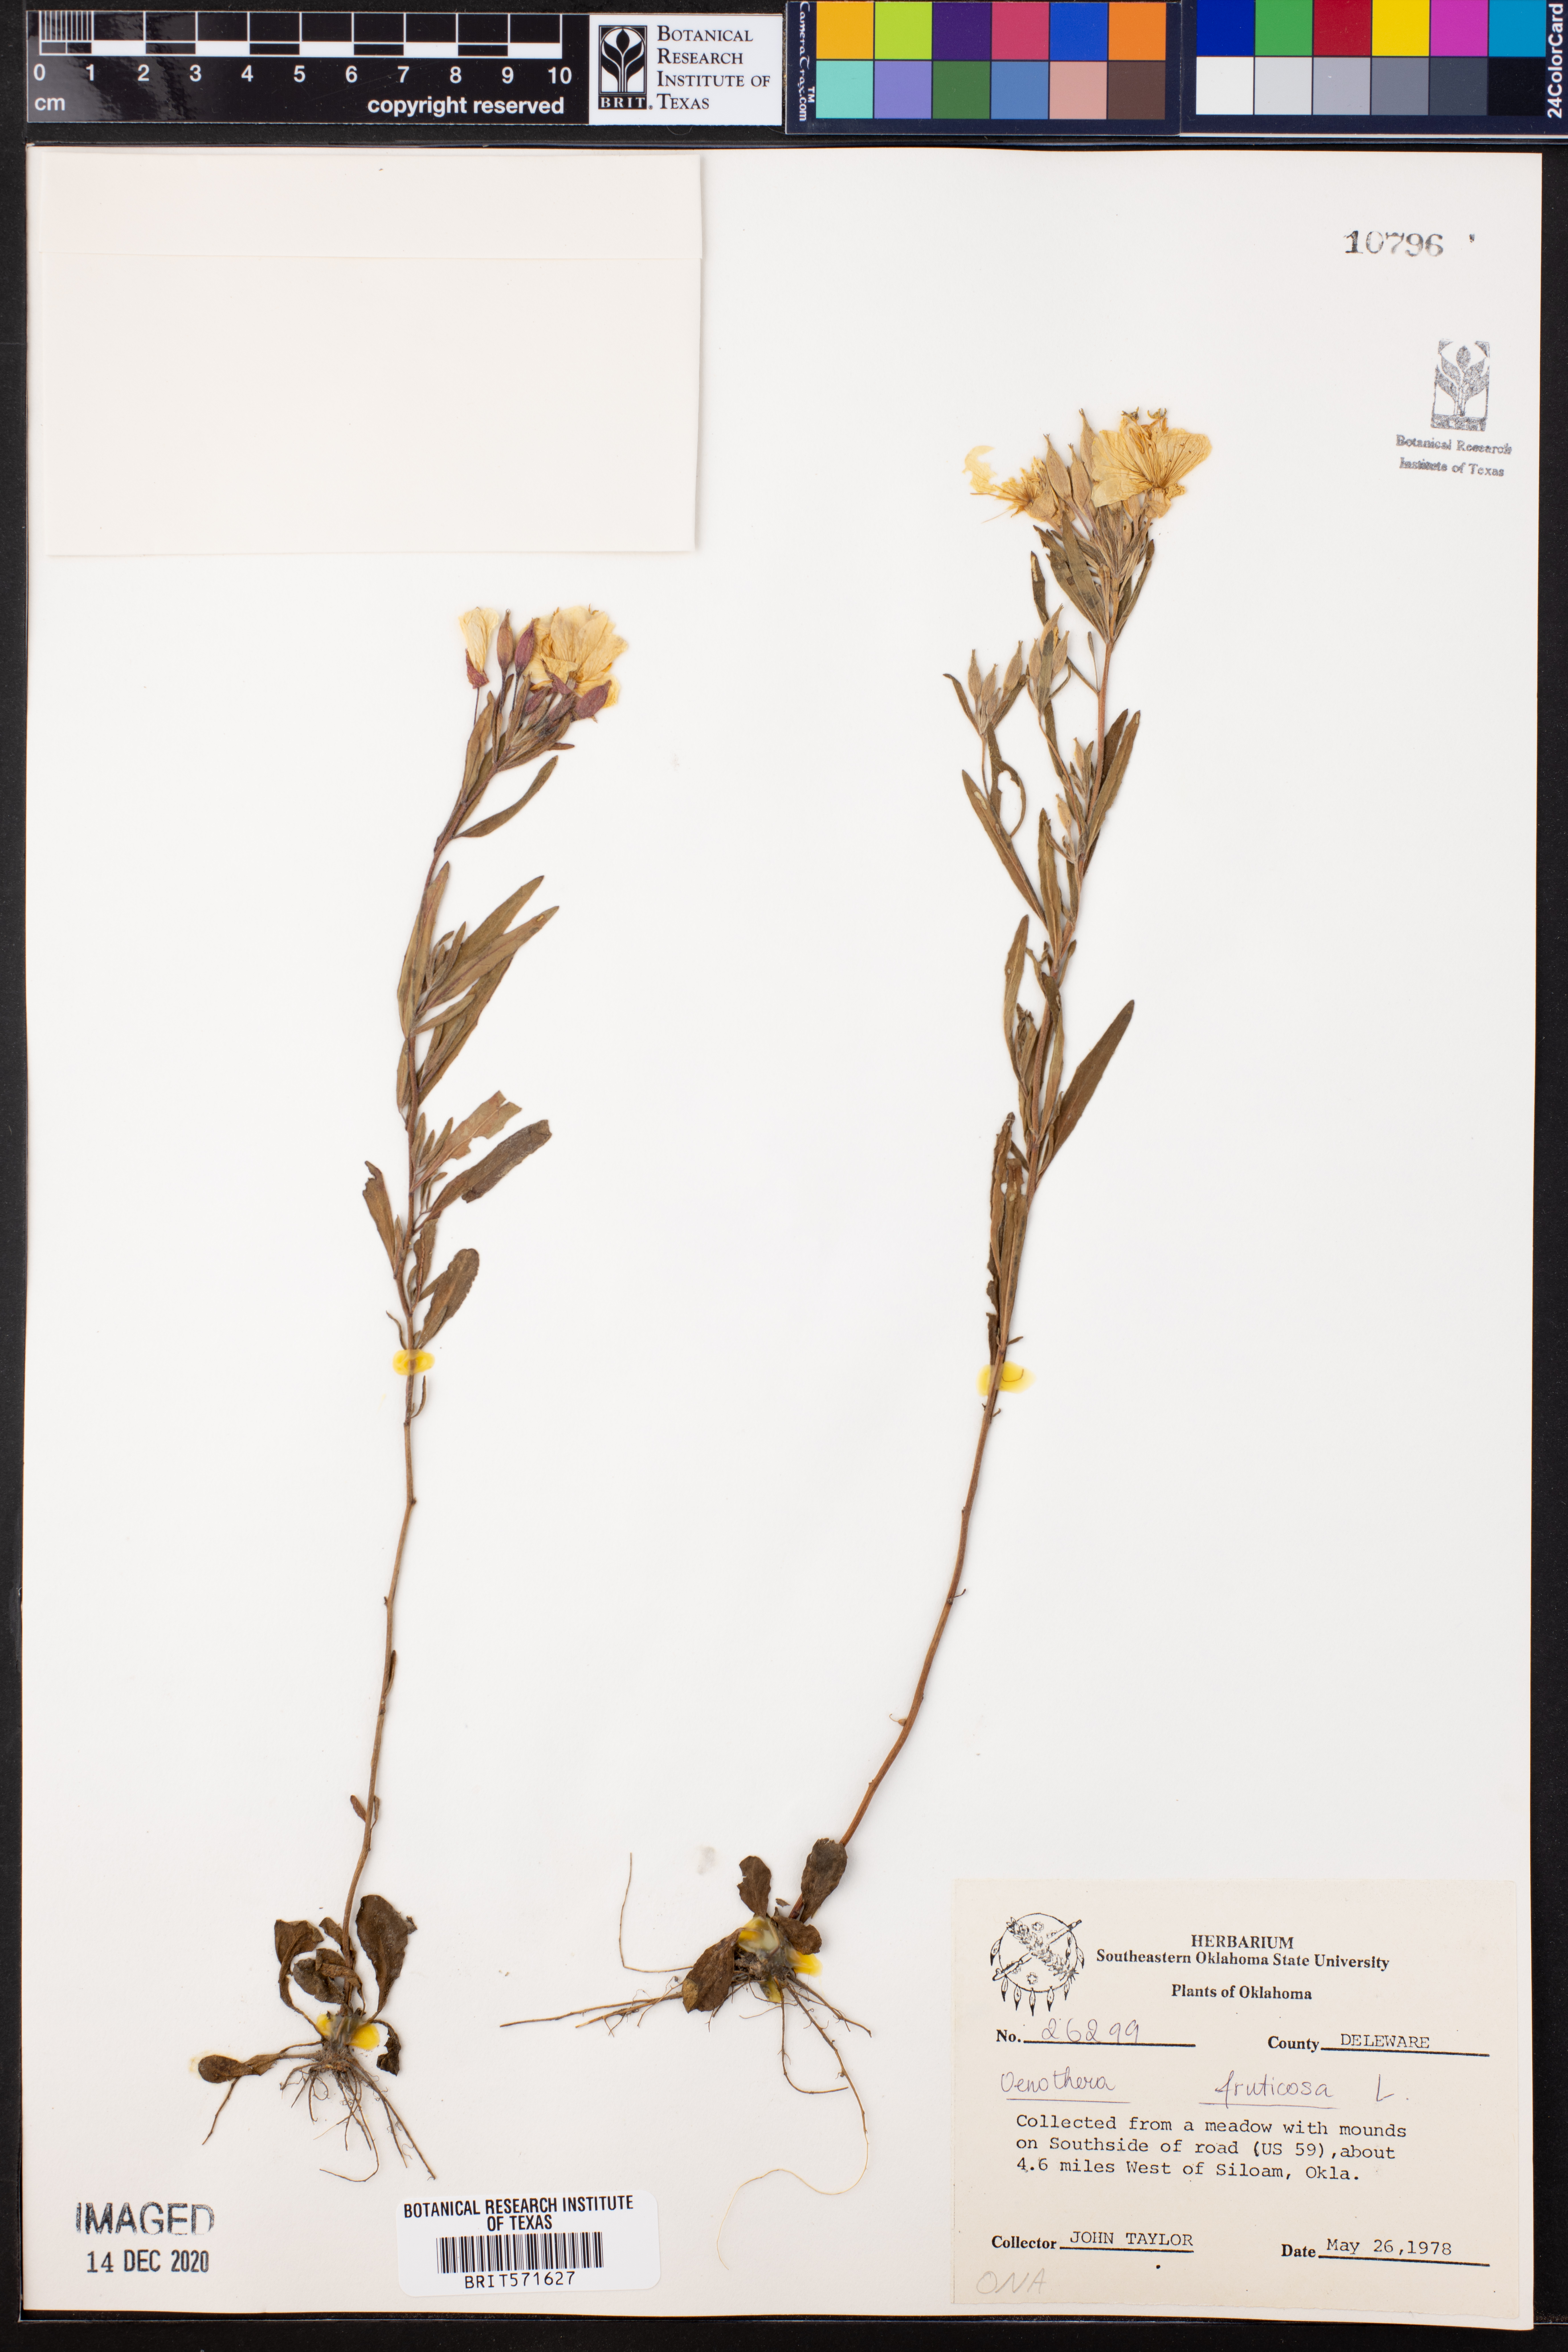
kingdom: Plantae
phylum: Tracheophyta
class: Magnoliopsida
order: Myrtales
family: Onagraceae
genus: Oenothera
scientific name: Oenothera fruticosa
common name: Southern sundrops
